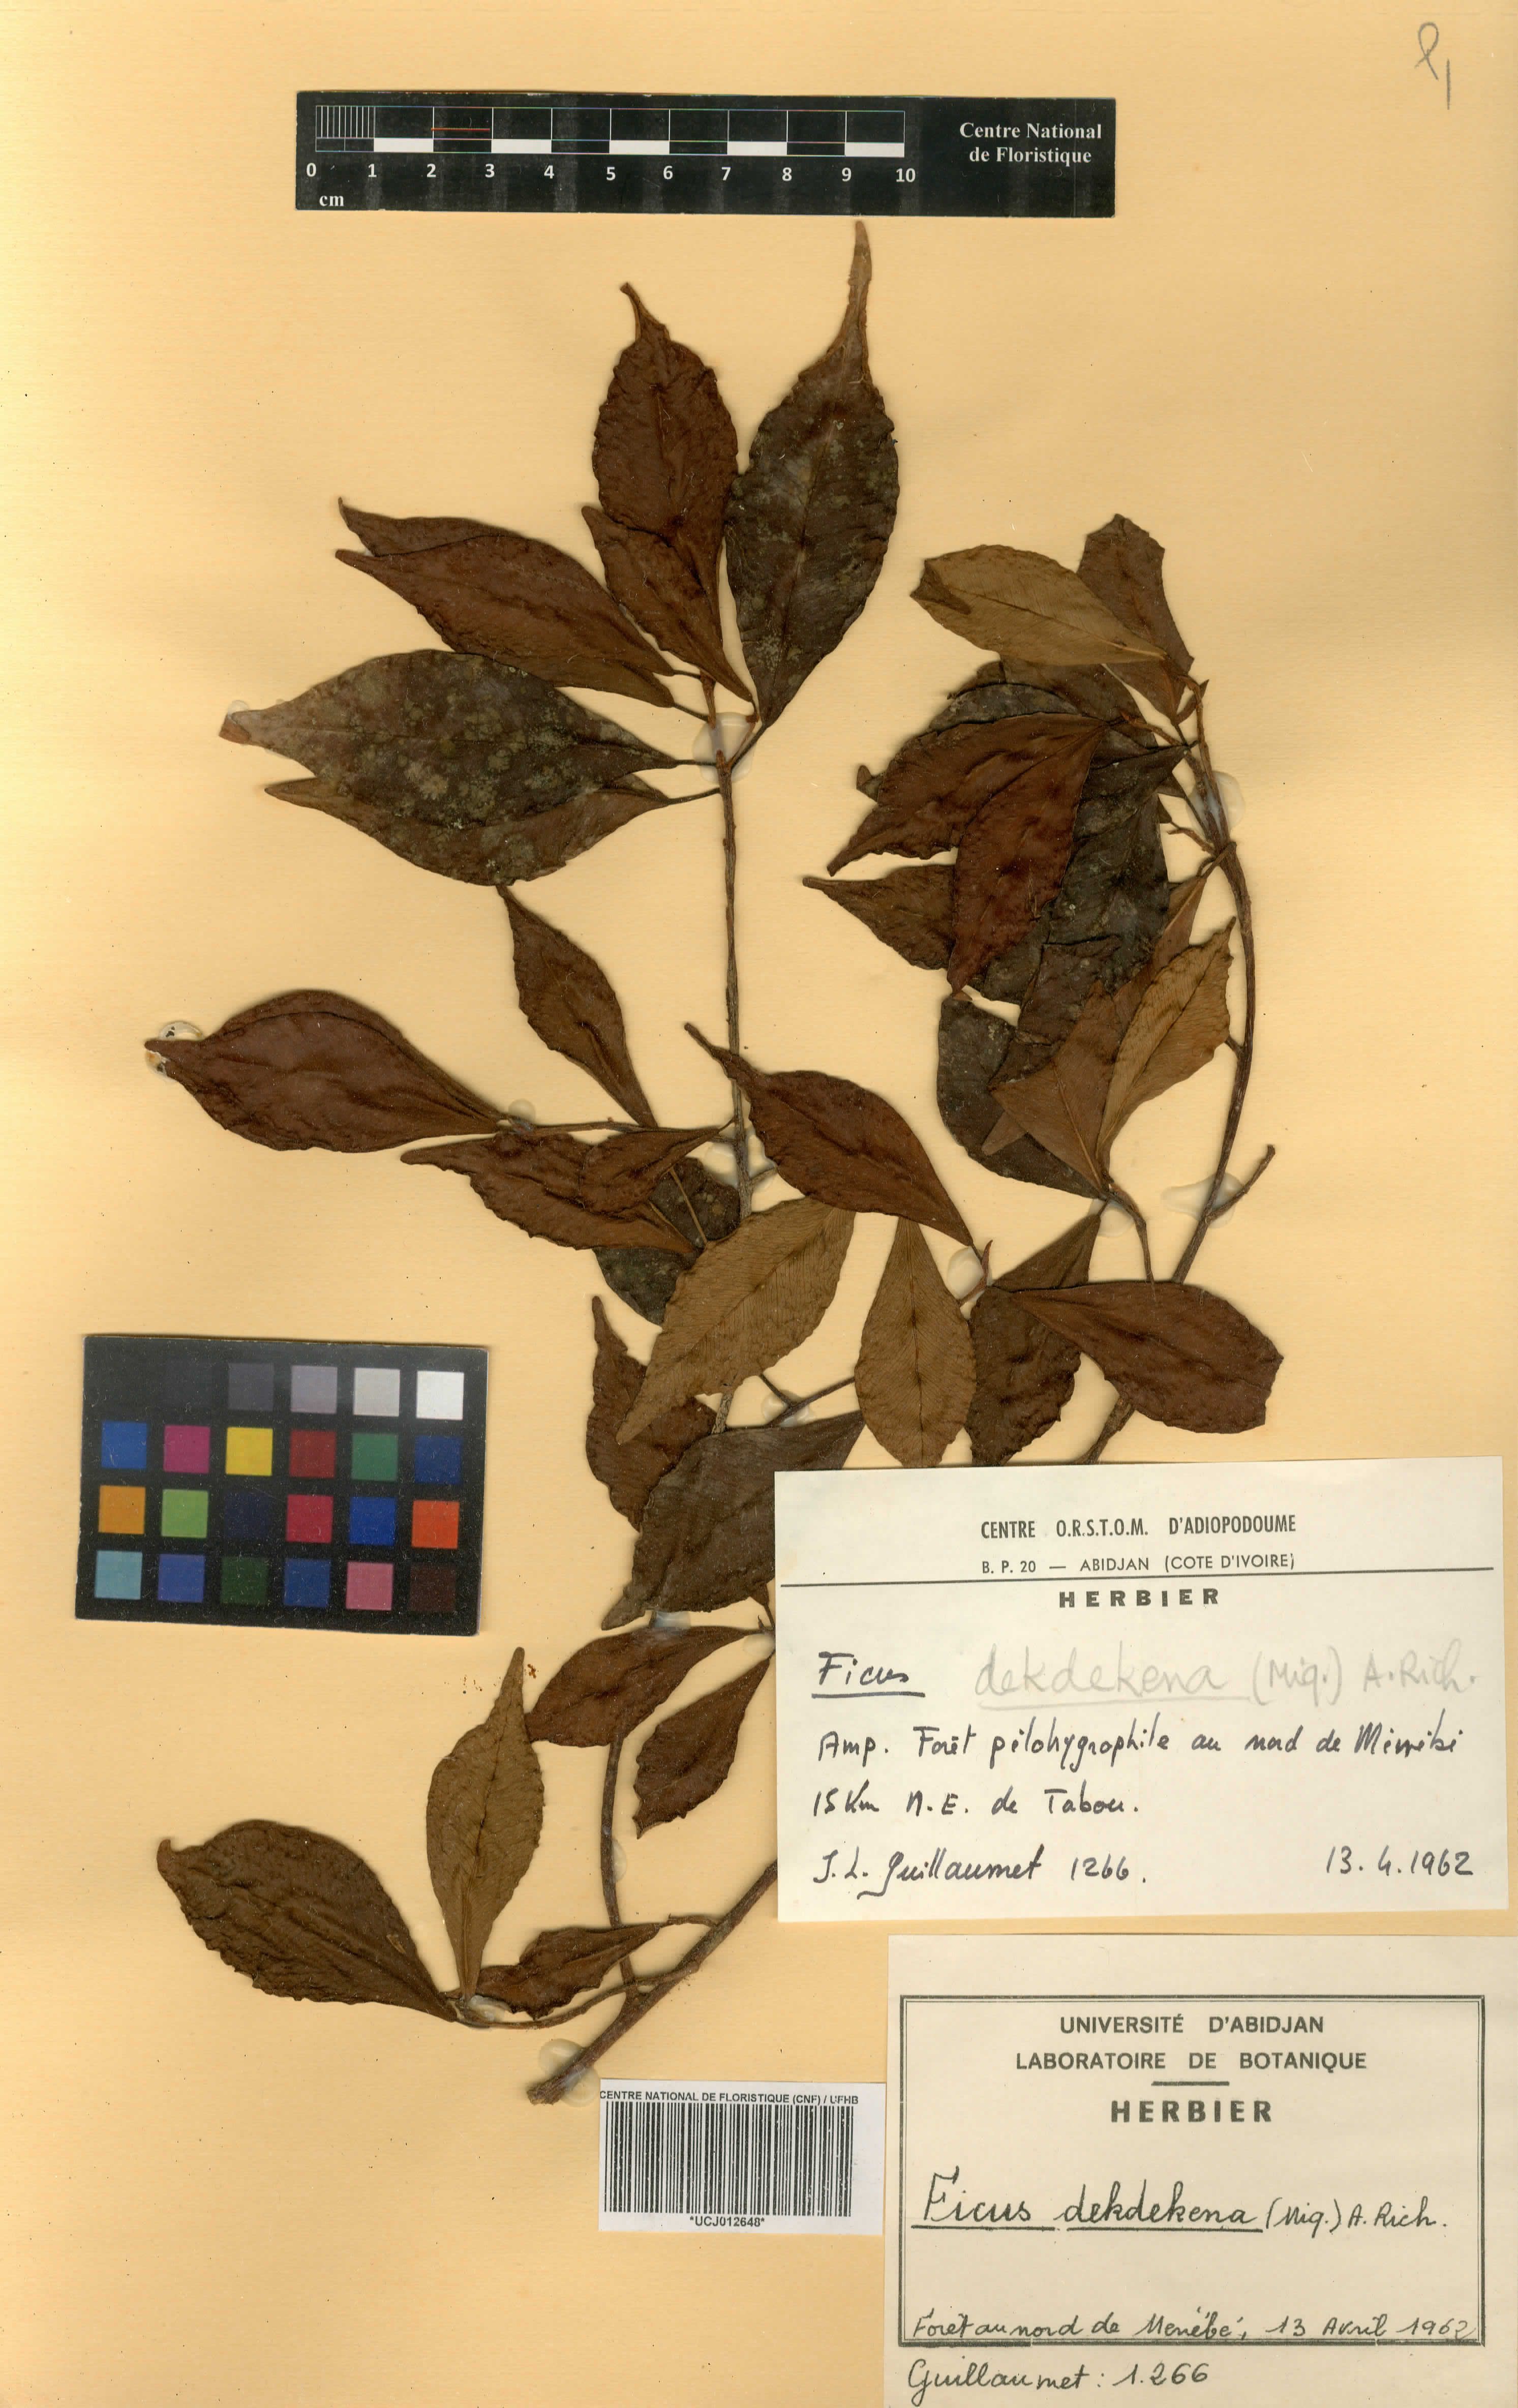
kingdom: Plantae
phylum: Tracheophyta
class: Magnoliopsida
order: Rosales
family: Moraceae
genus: Ficus
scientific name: Ficus thonningii
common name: Fig
